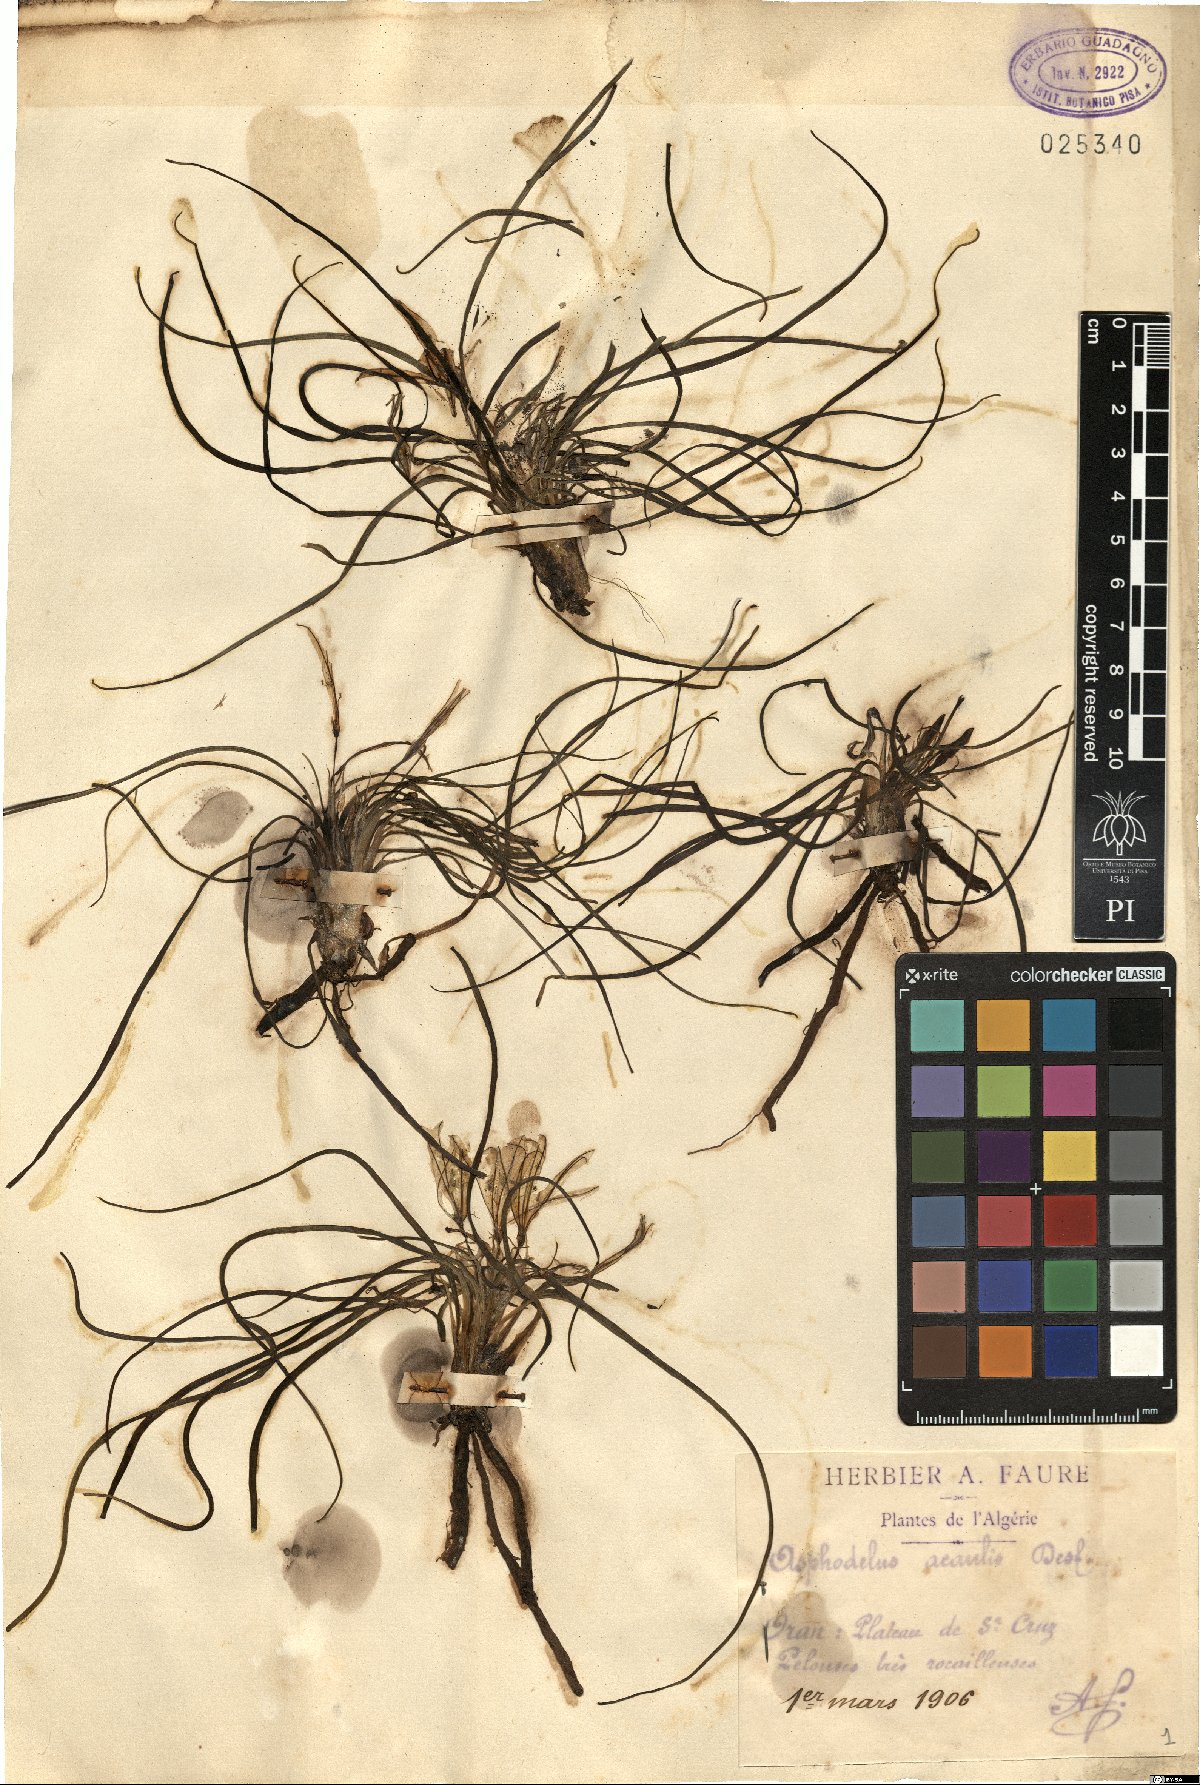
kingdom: Plantae
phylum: Tracheophyta
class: Liliopsida
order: Asparagales
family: Asphodelaceae
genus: Asphodelus
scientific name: Asphodelus acaulis
